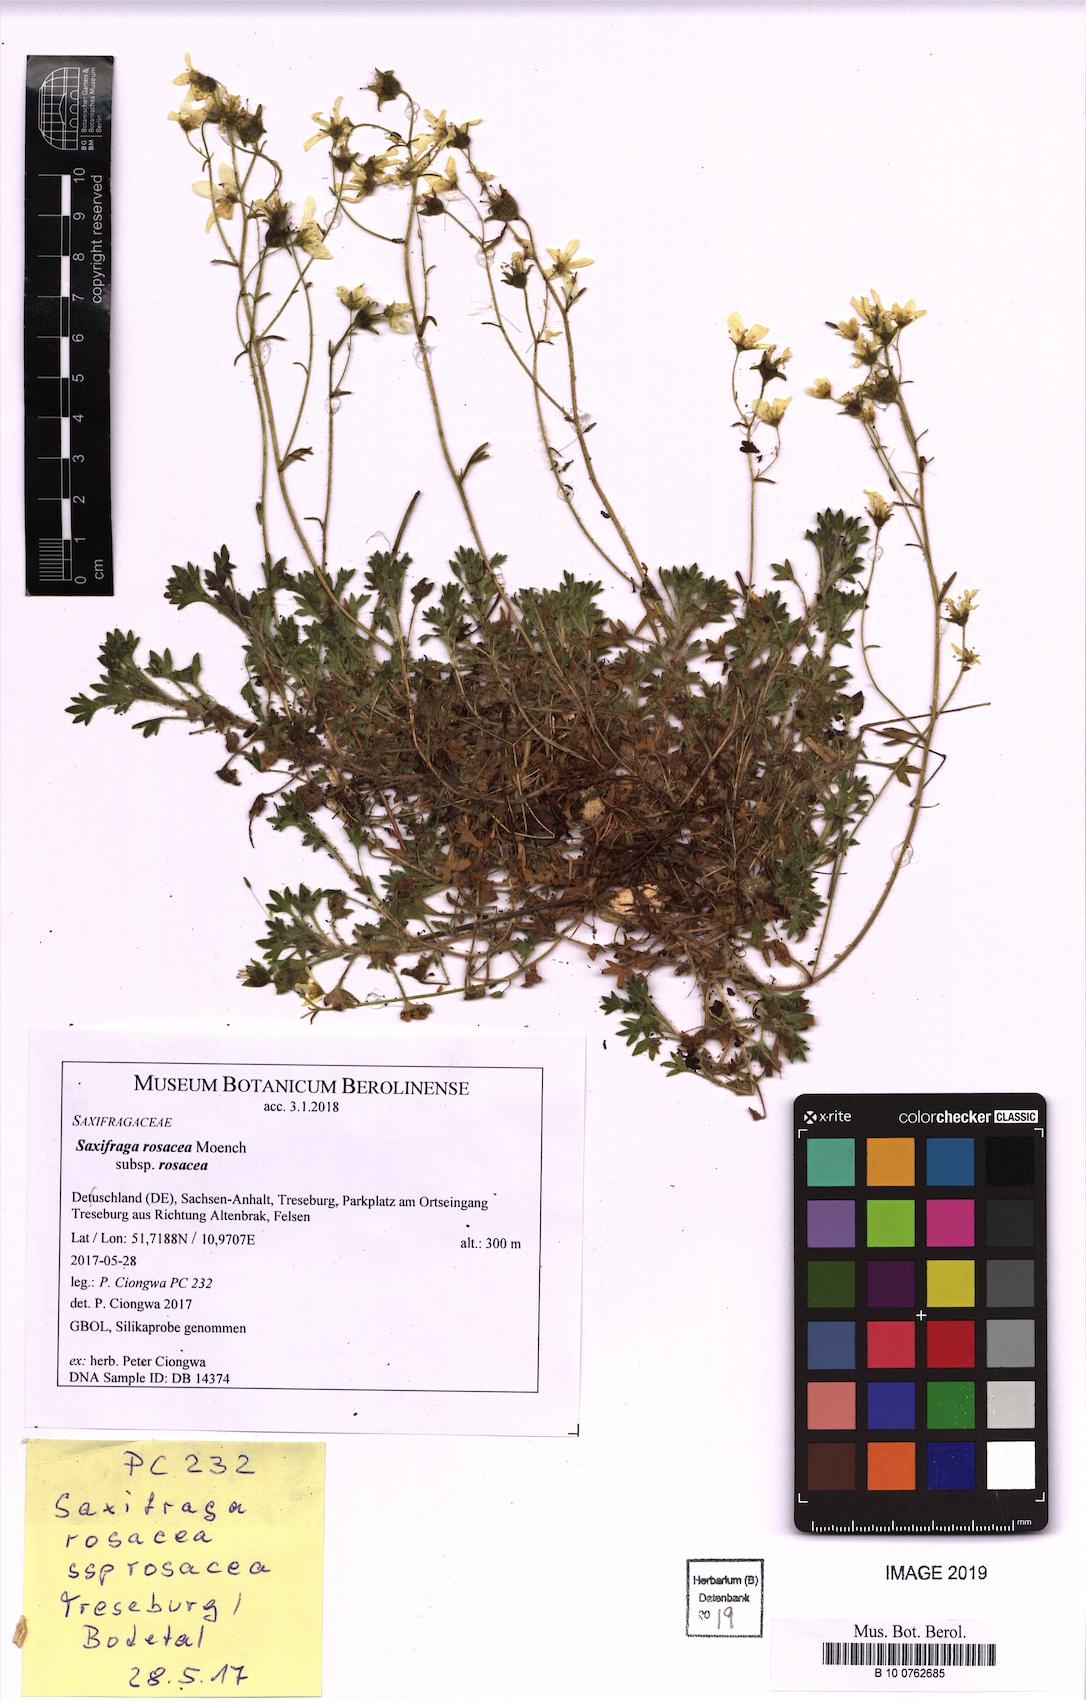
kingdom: Plantae
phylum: Tracheophyta
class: Magnoliopsida
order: Saxifragales
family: Saxifragaceae
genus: Saxifraga
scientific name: Saxifraga rosacea
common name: Irish saxifrage
